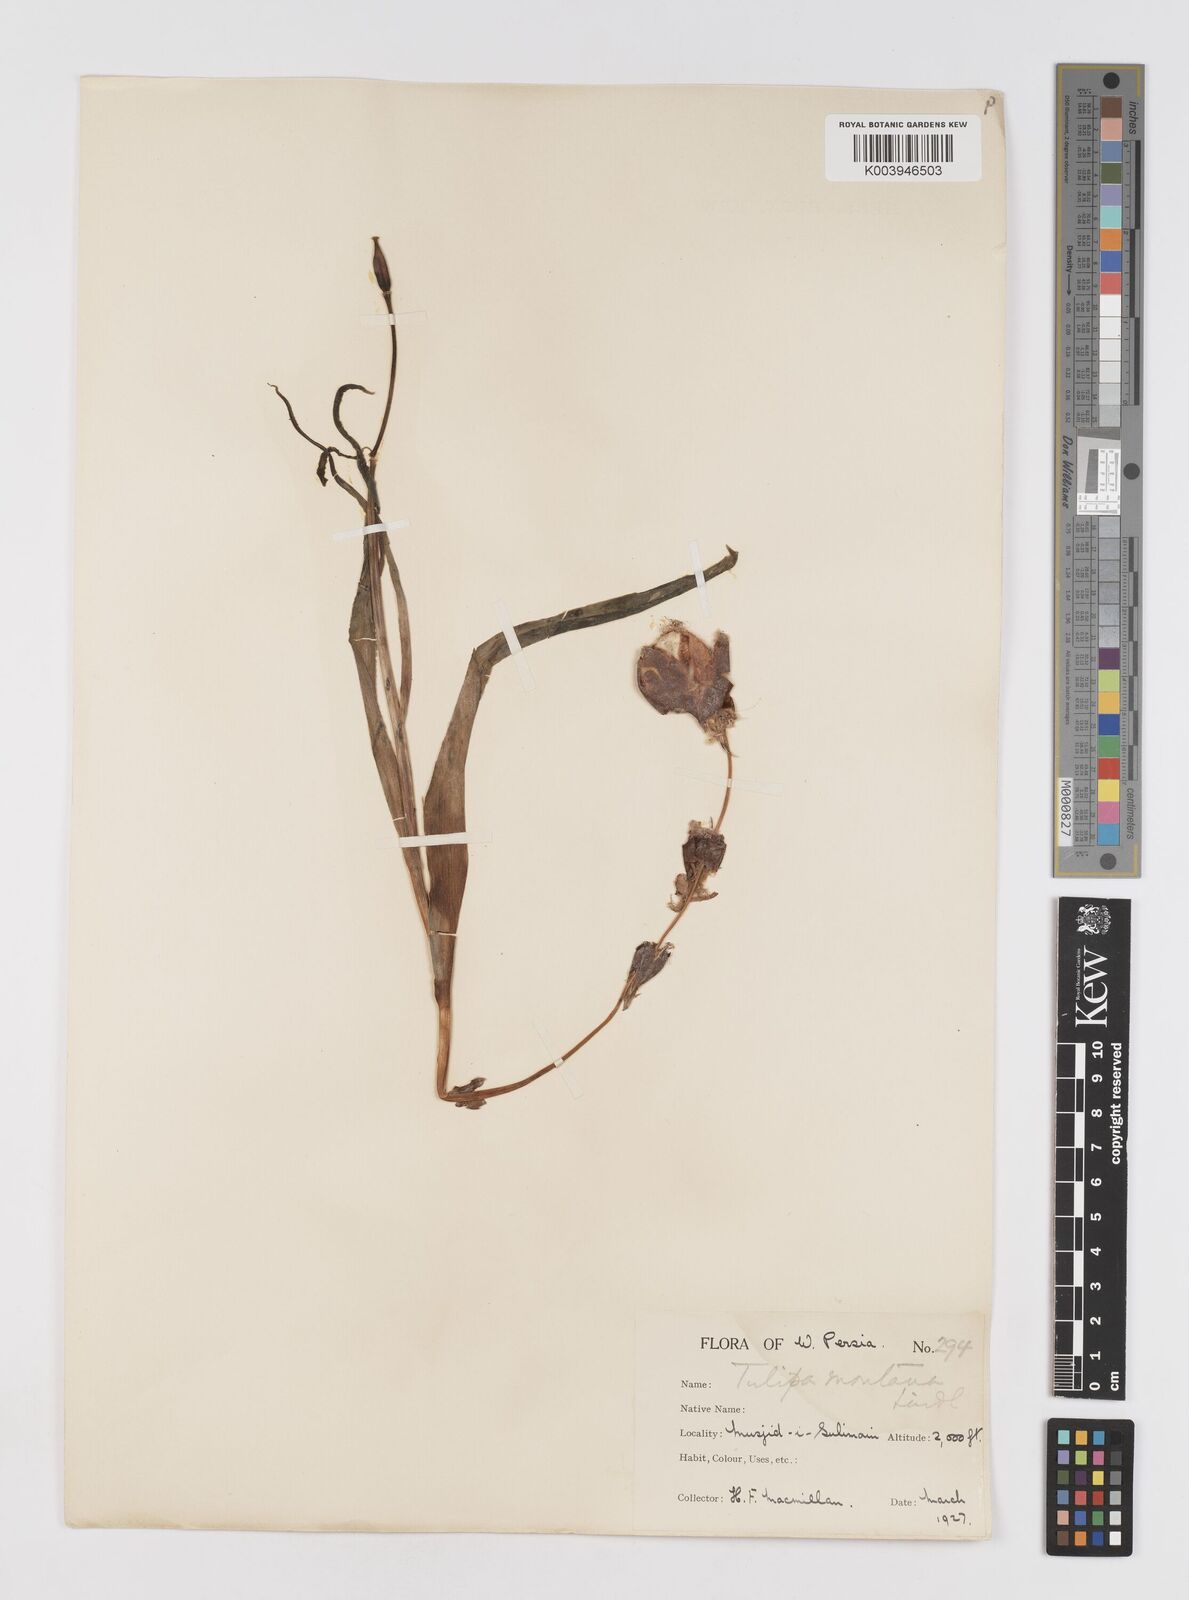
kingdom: Plantae
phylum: Tracheophyta
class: Liliopsida
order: Liliales
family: Liliaceae
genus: Tulipa
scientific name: Tulipa systola
